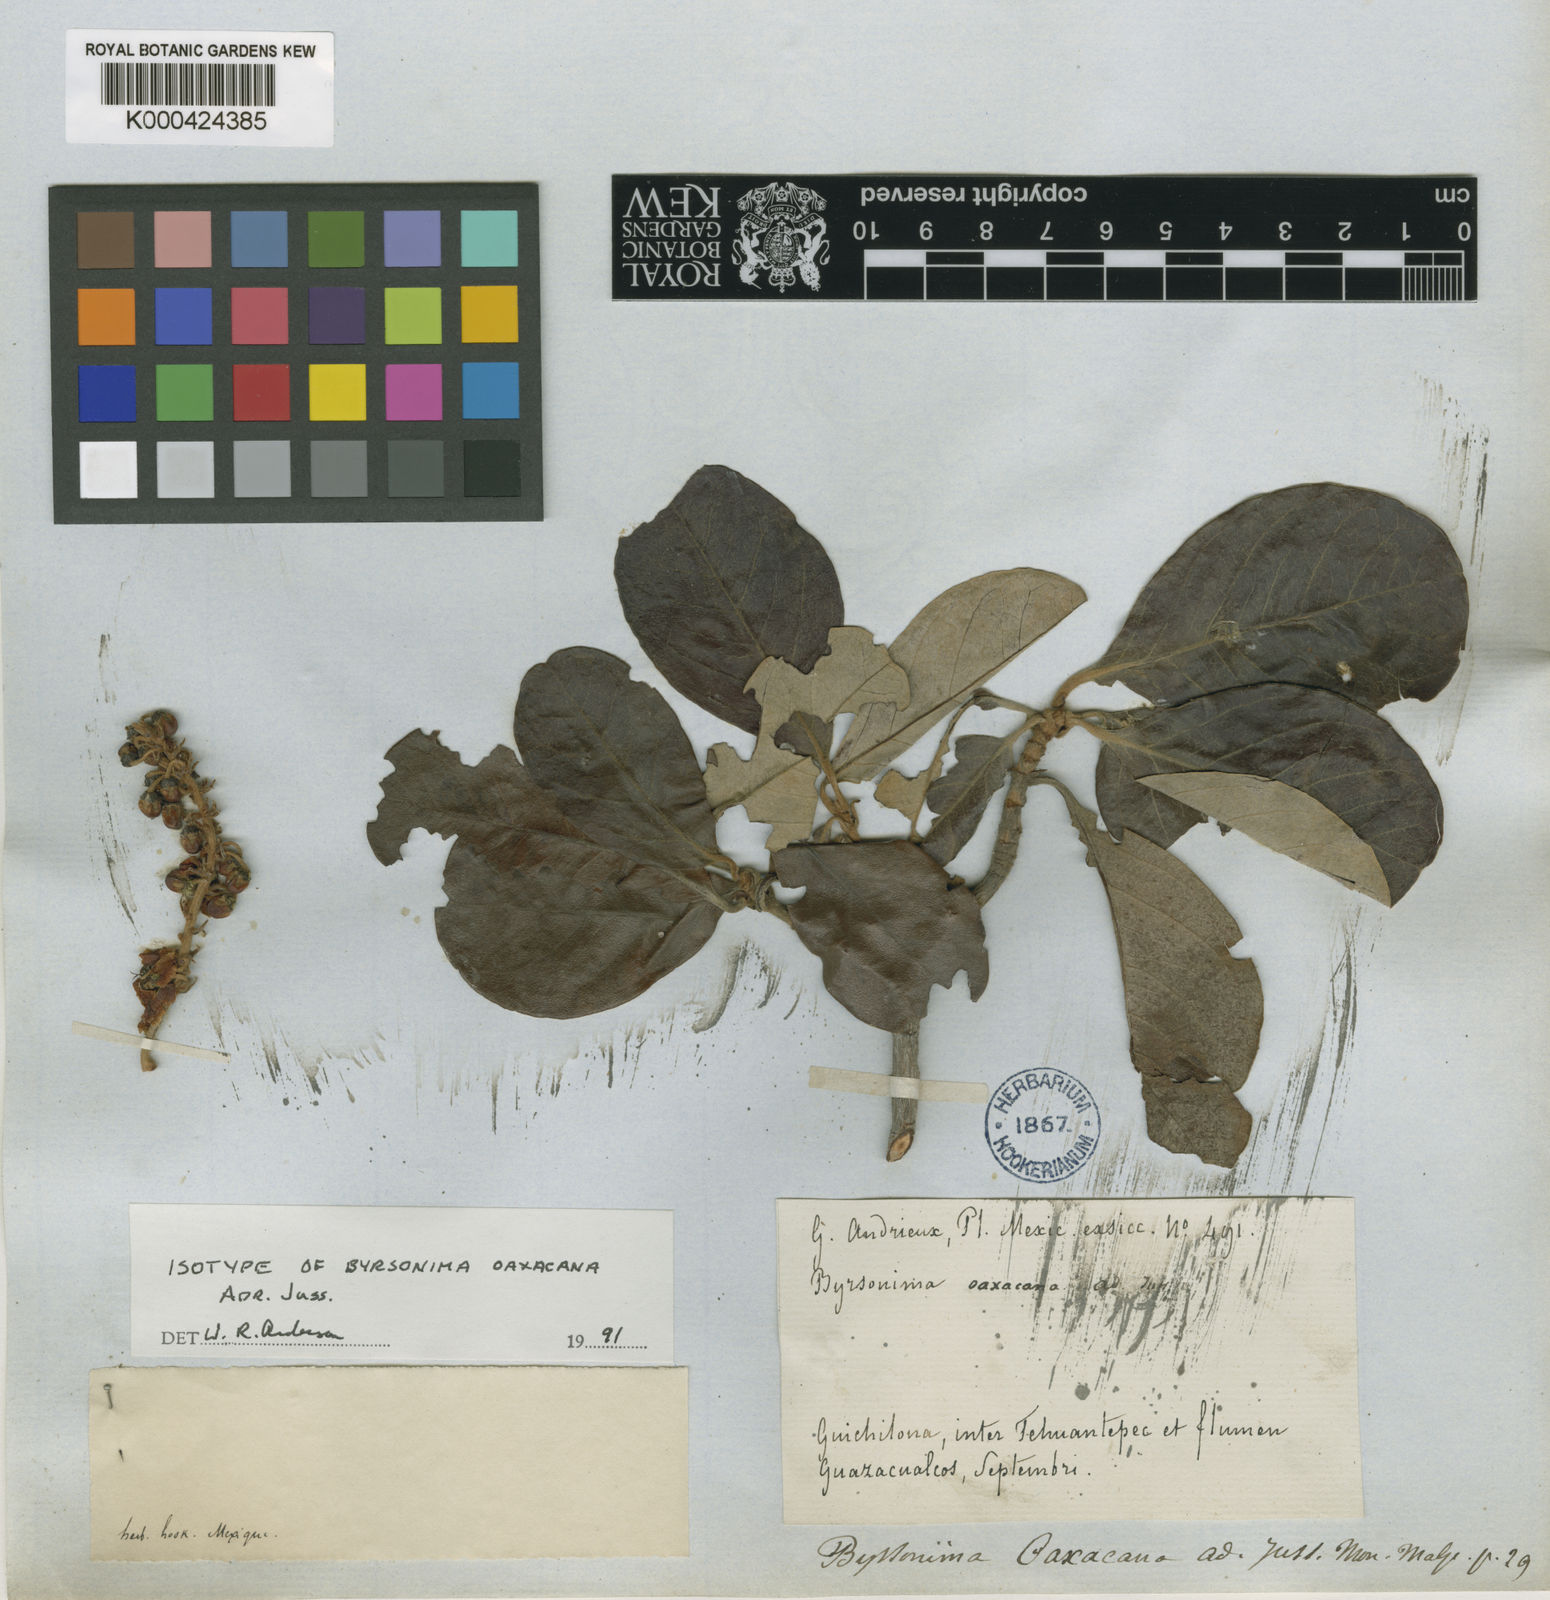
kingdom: Plantae
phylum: Tracheophyta
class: Magnoliopsida
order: Malpighiales
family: Malpighiaceae
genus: Byrsonima
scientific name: Byrsonima oaxacana
